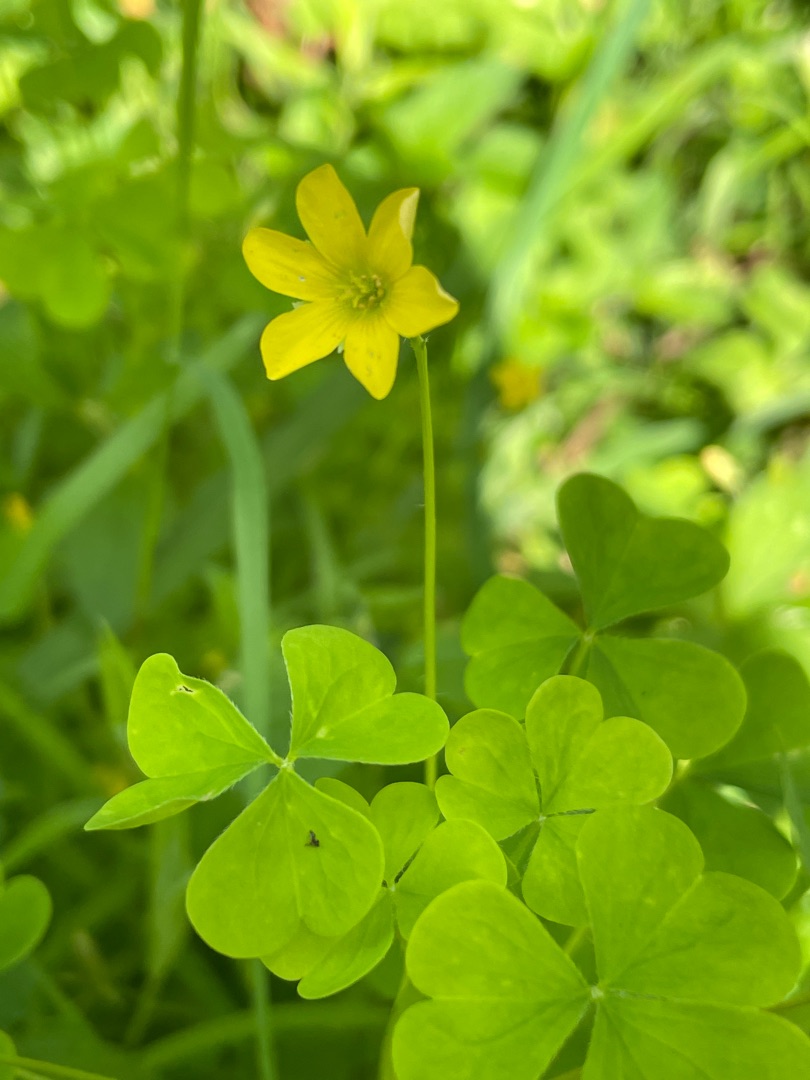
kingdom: Plantae
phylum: Tracheophyta
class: Magnoliopsida
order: Oxalidales
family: Oxalidaceae
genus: Oxalis
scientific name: Oxalis stricta
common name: Rank surkløver
